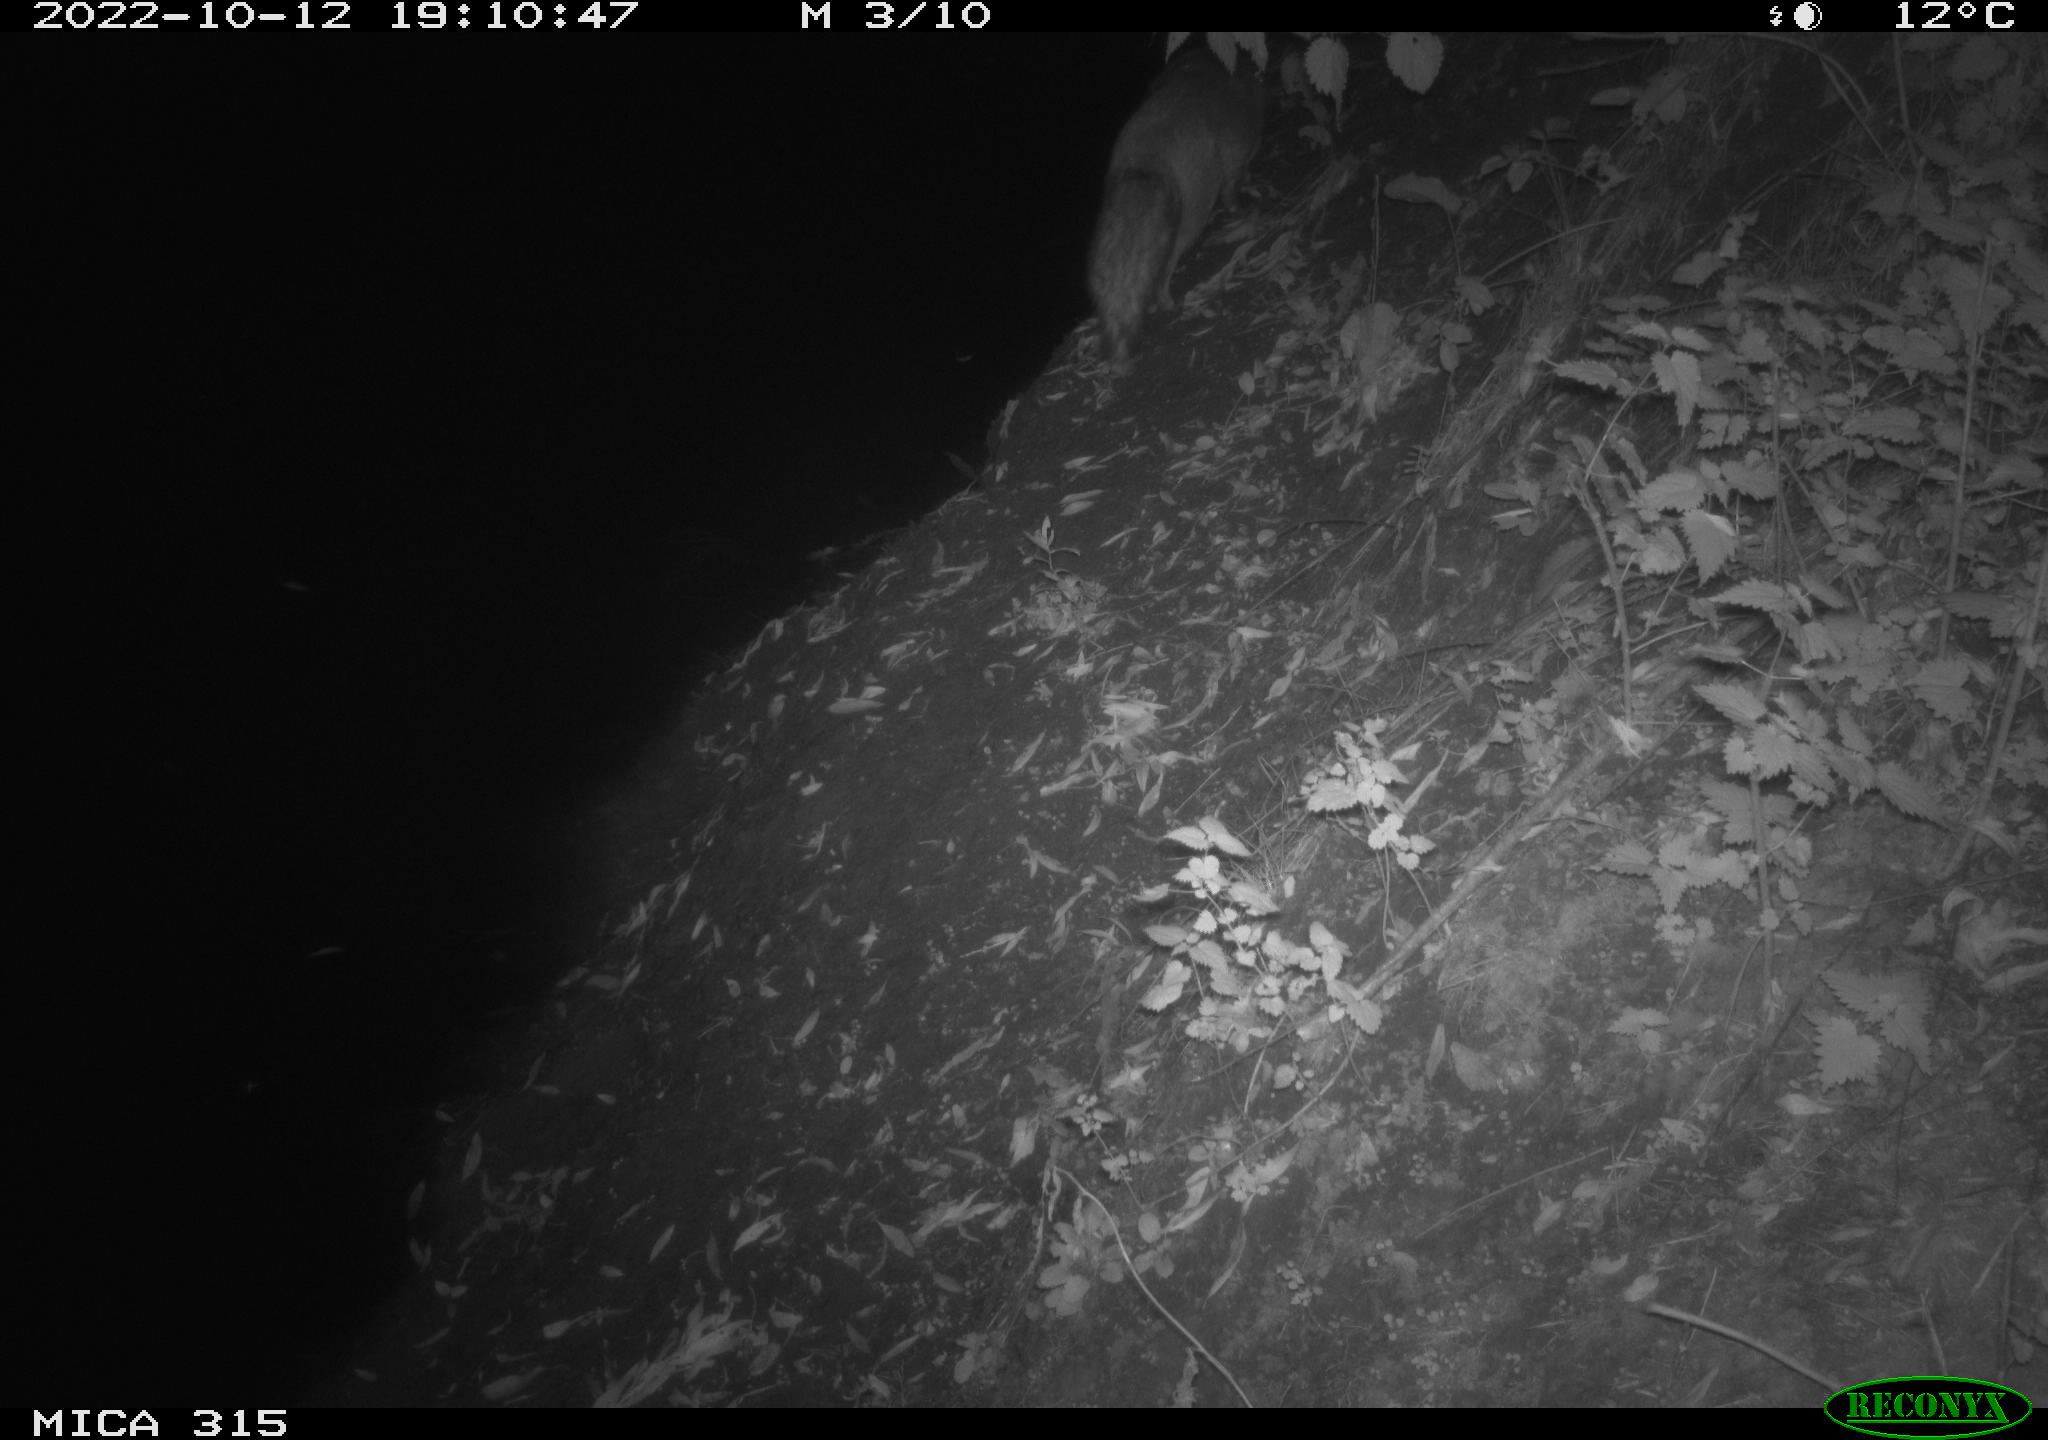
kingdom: Animalia
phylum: Chordata
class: Mammalia
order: Carnivora
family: Canidae
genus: Vulpes
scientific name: Vulpes vulpes
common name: Red fox
